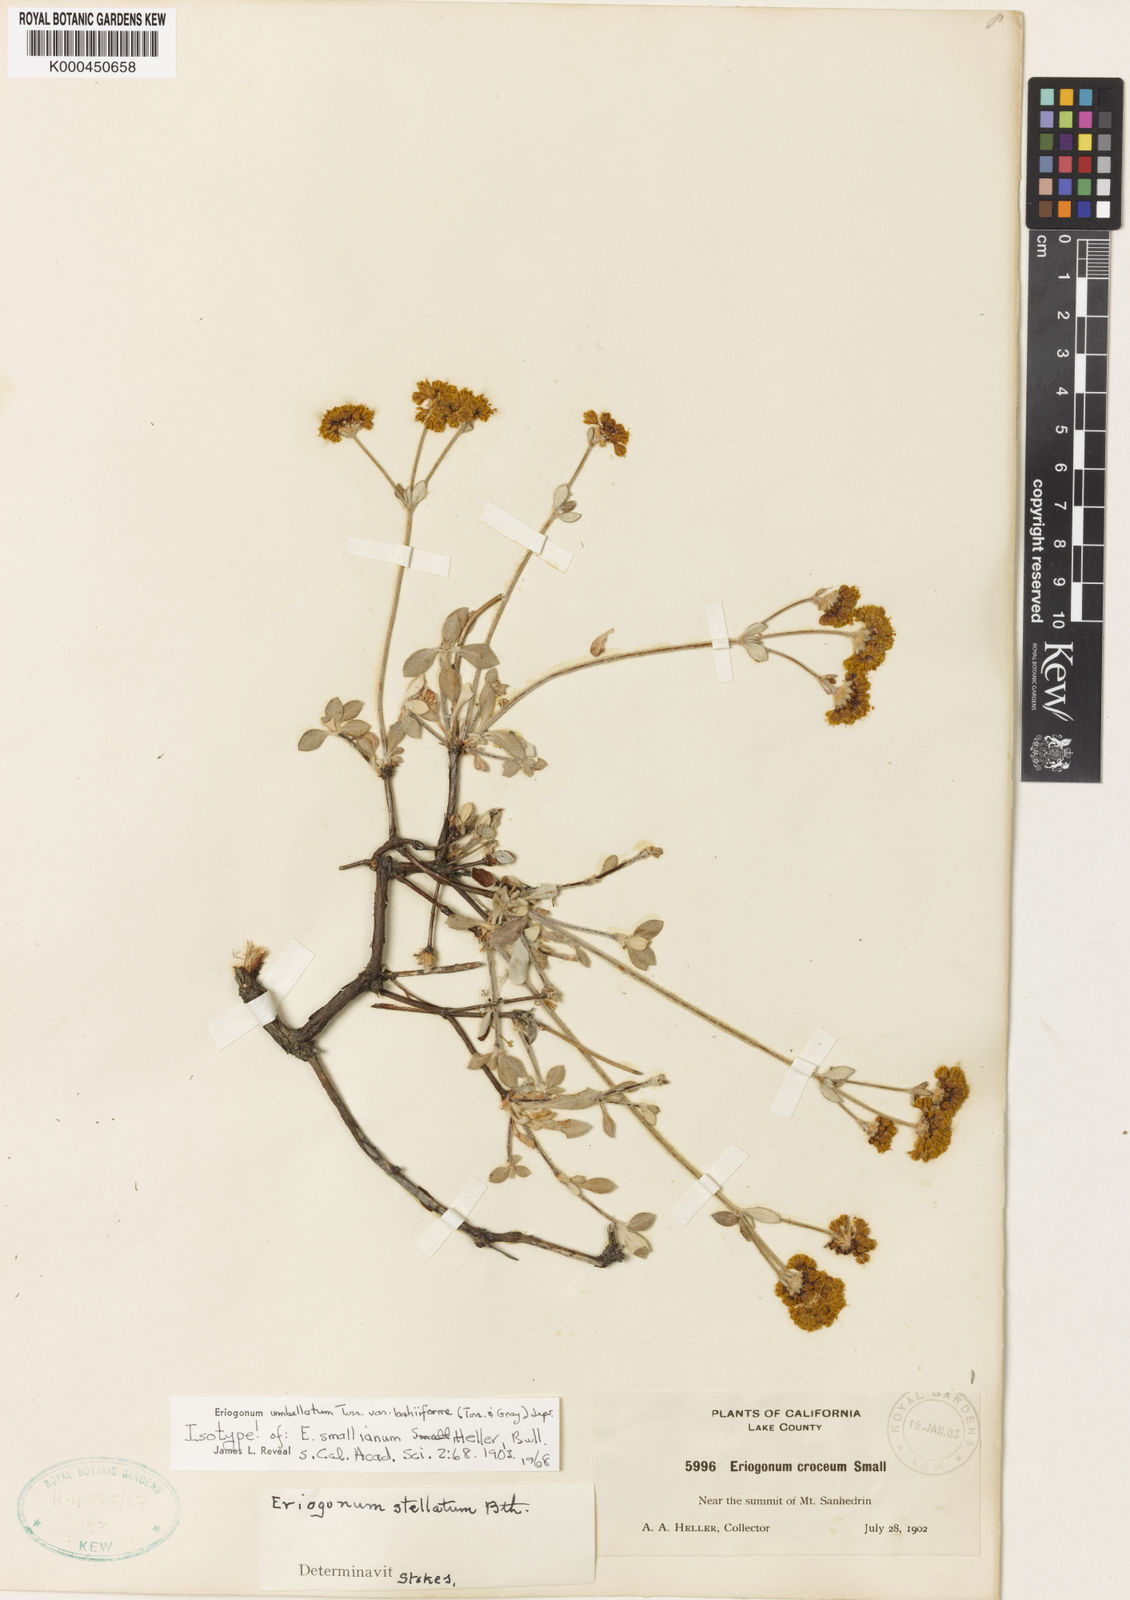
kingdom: Plantae
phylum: Tracheophyta
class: Magnoliopsida
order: Caryophyllales
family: Polygonaceae
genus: Eriogonum
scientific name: Eriogonum umbellatum
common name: Sulfur-buckwheat
